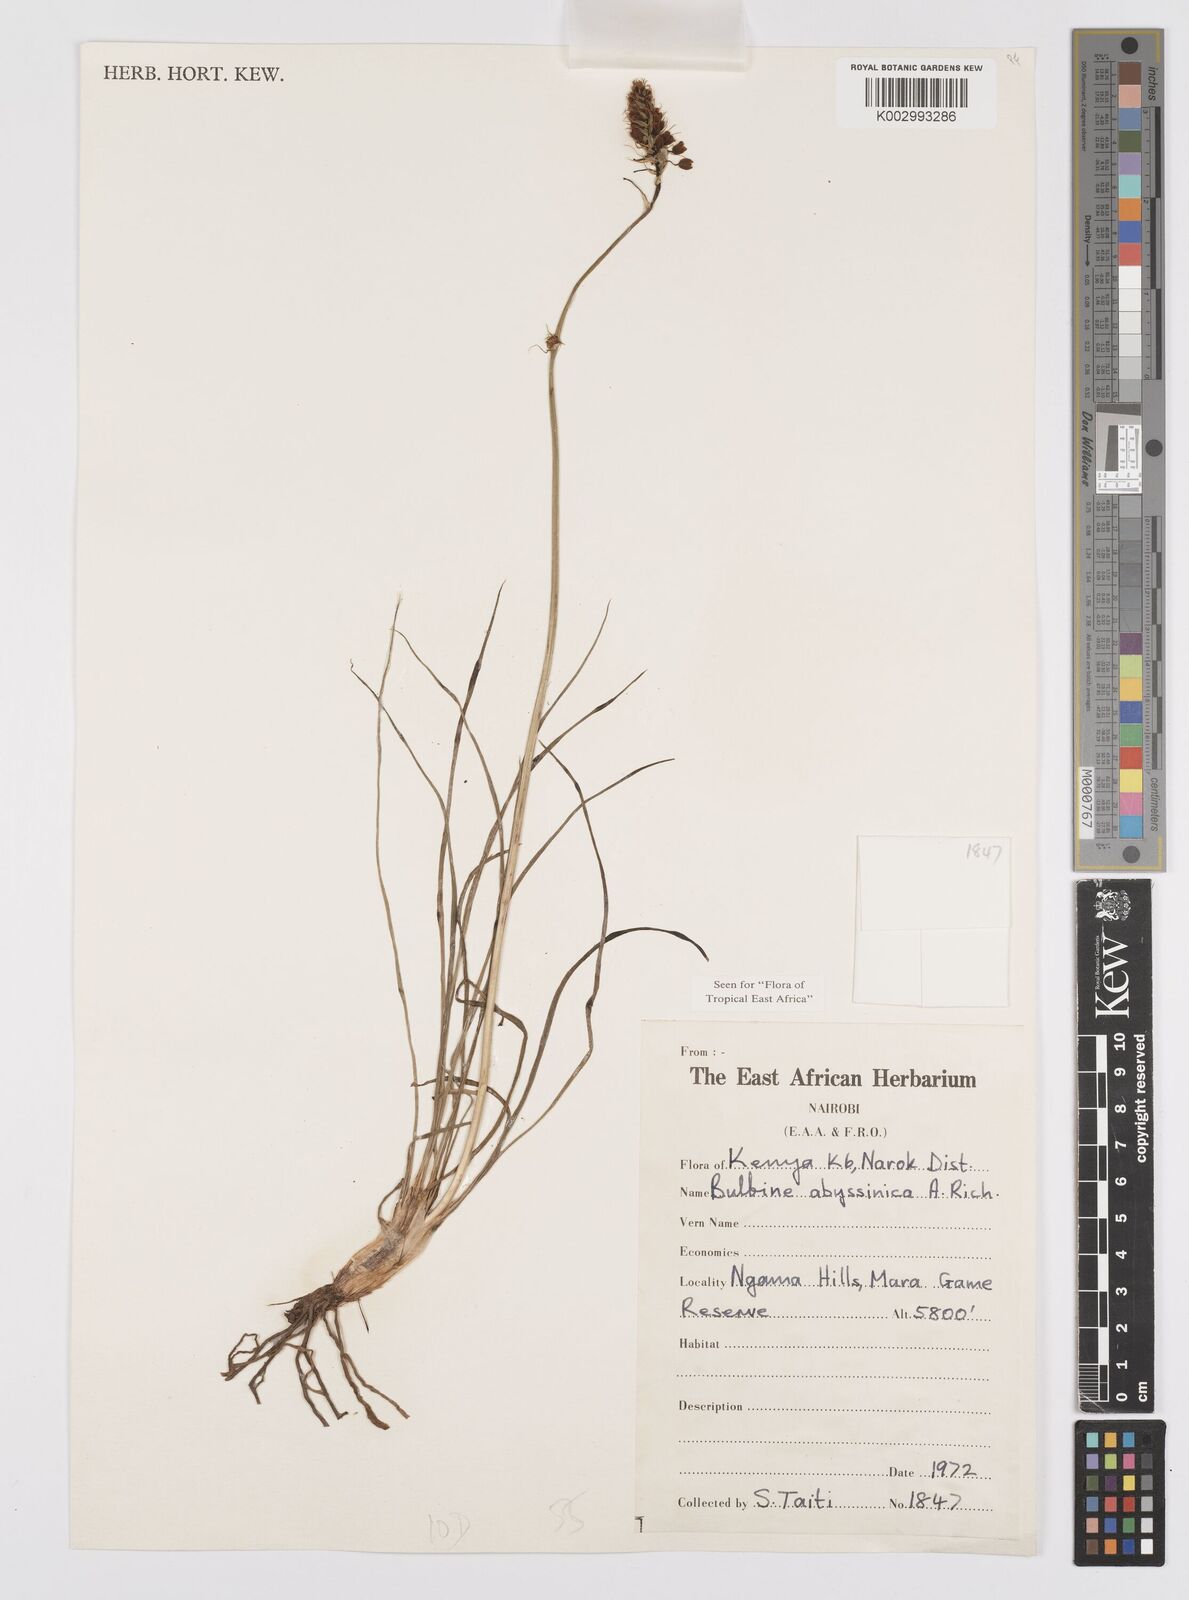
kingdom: Plantae
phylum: Tracheophyta
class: Liliopsida
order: Asparagales
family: Asphodelaceae
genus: Bulbine
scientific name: Bulbine abyssinica
